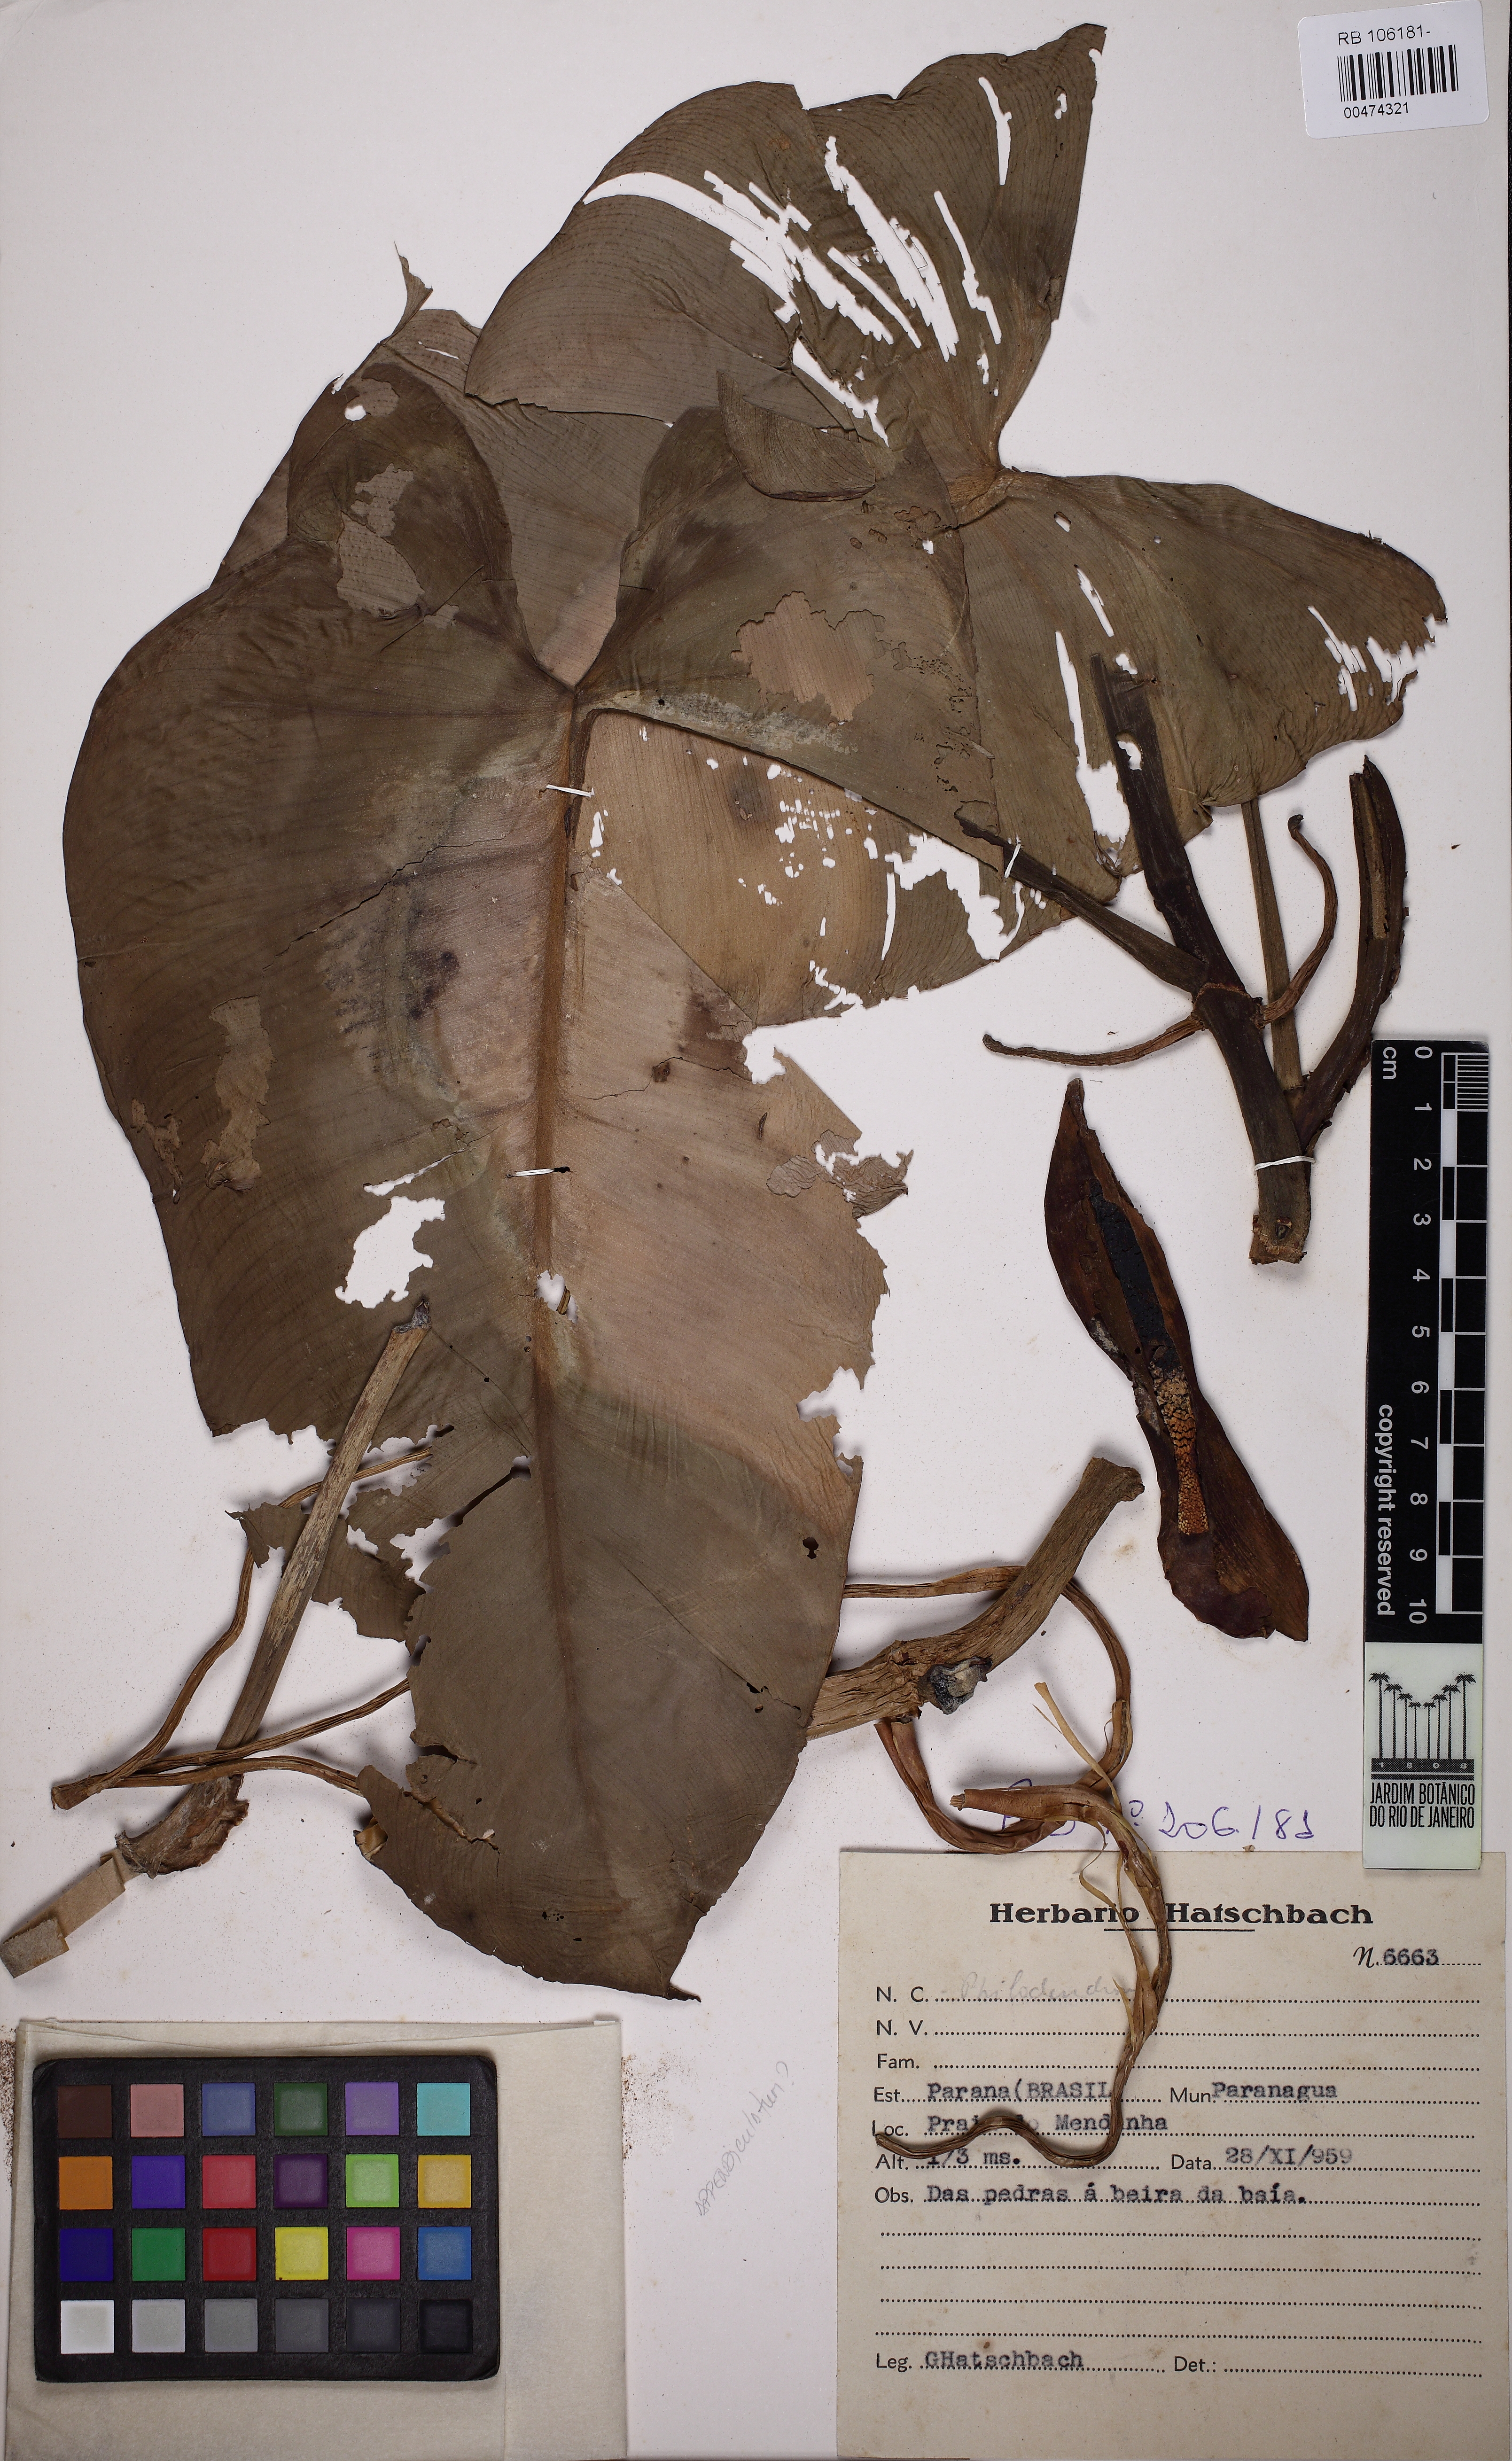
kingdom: Plantae
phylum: Tracheophyta
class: Liliopsida
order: Alismatales
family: Araceae
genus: Philodendron
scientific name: Philodendron
